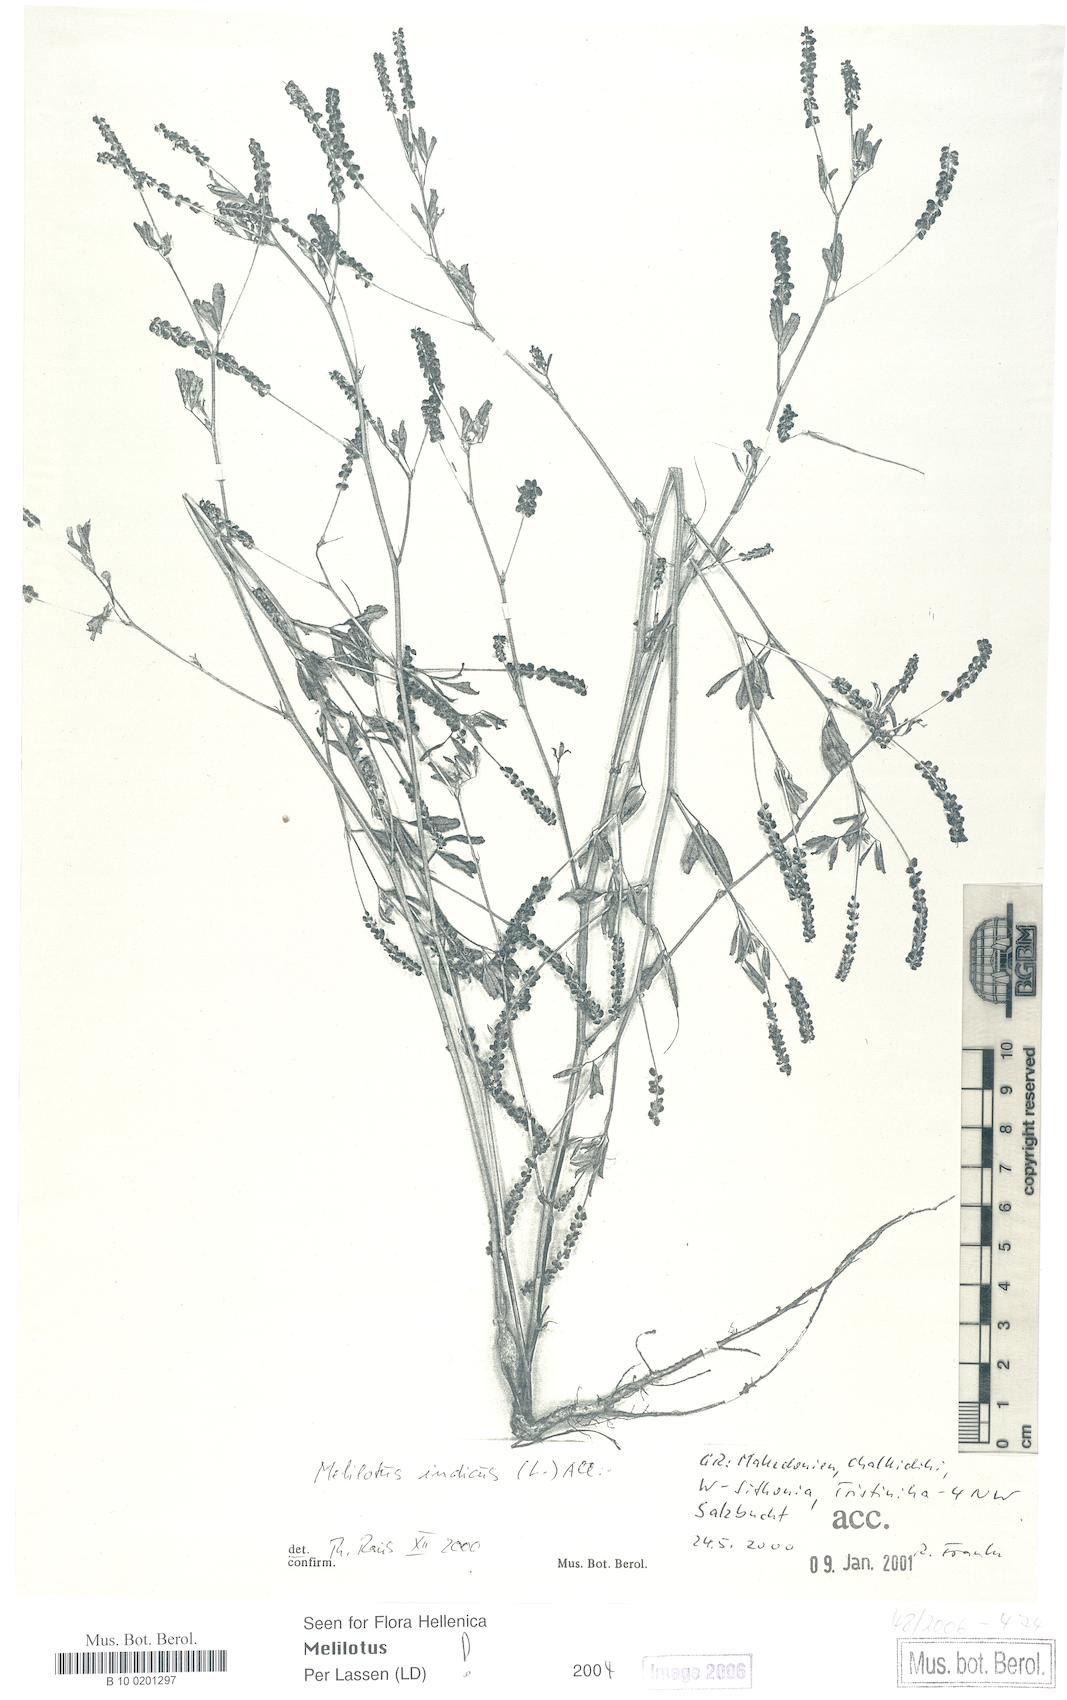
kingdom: Plantae
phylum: Tracheophyta
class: Magnoliopsida
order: Fabales
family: Fabaceae
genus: Melilotus
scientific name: Melilotus indicus
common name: Small melilot
